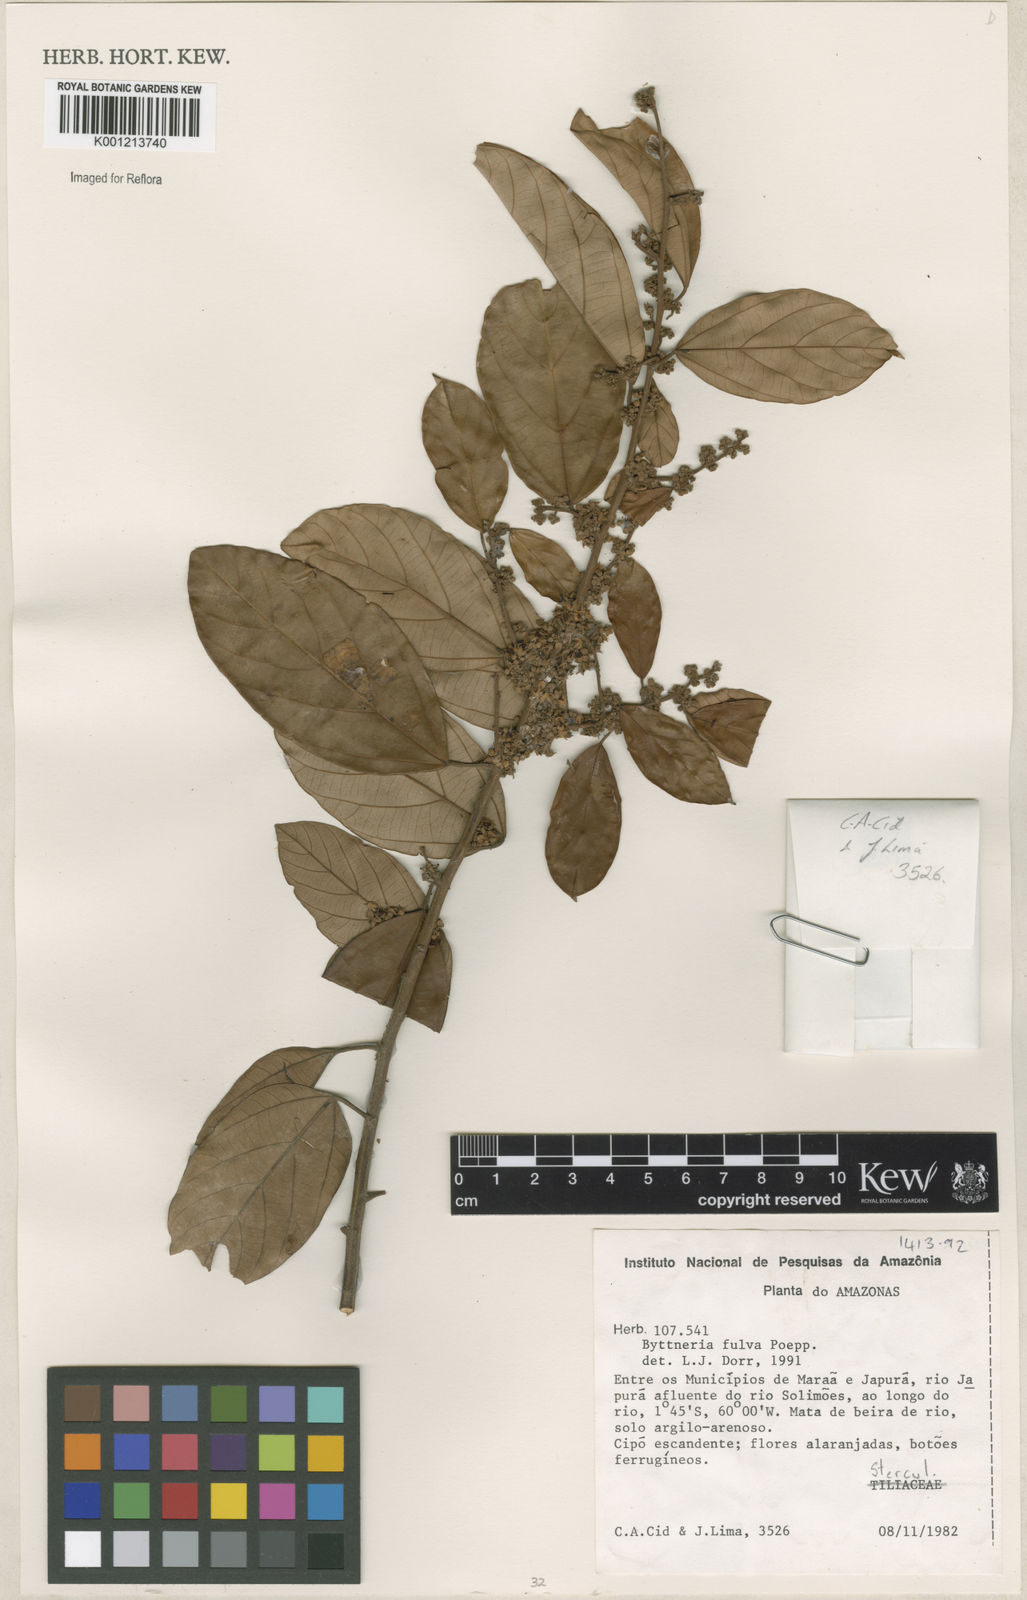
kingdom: Plantae
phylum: Tracheophyta
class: Magnoliopsida
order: Malvales
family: Malvaceae
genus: Byttneria
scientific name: Byttneria fulva
